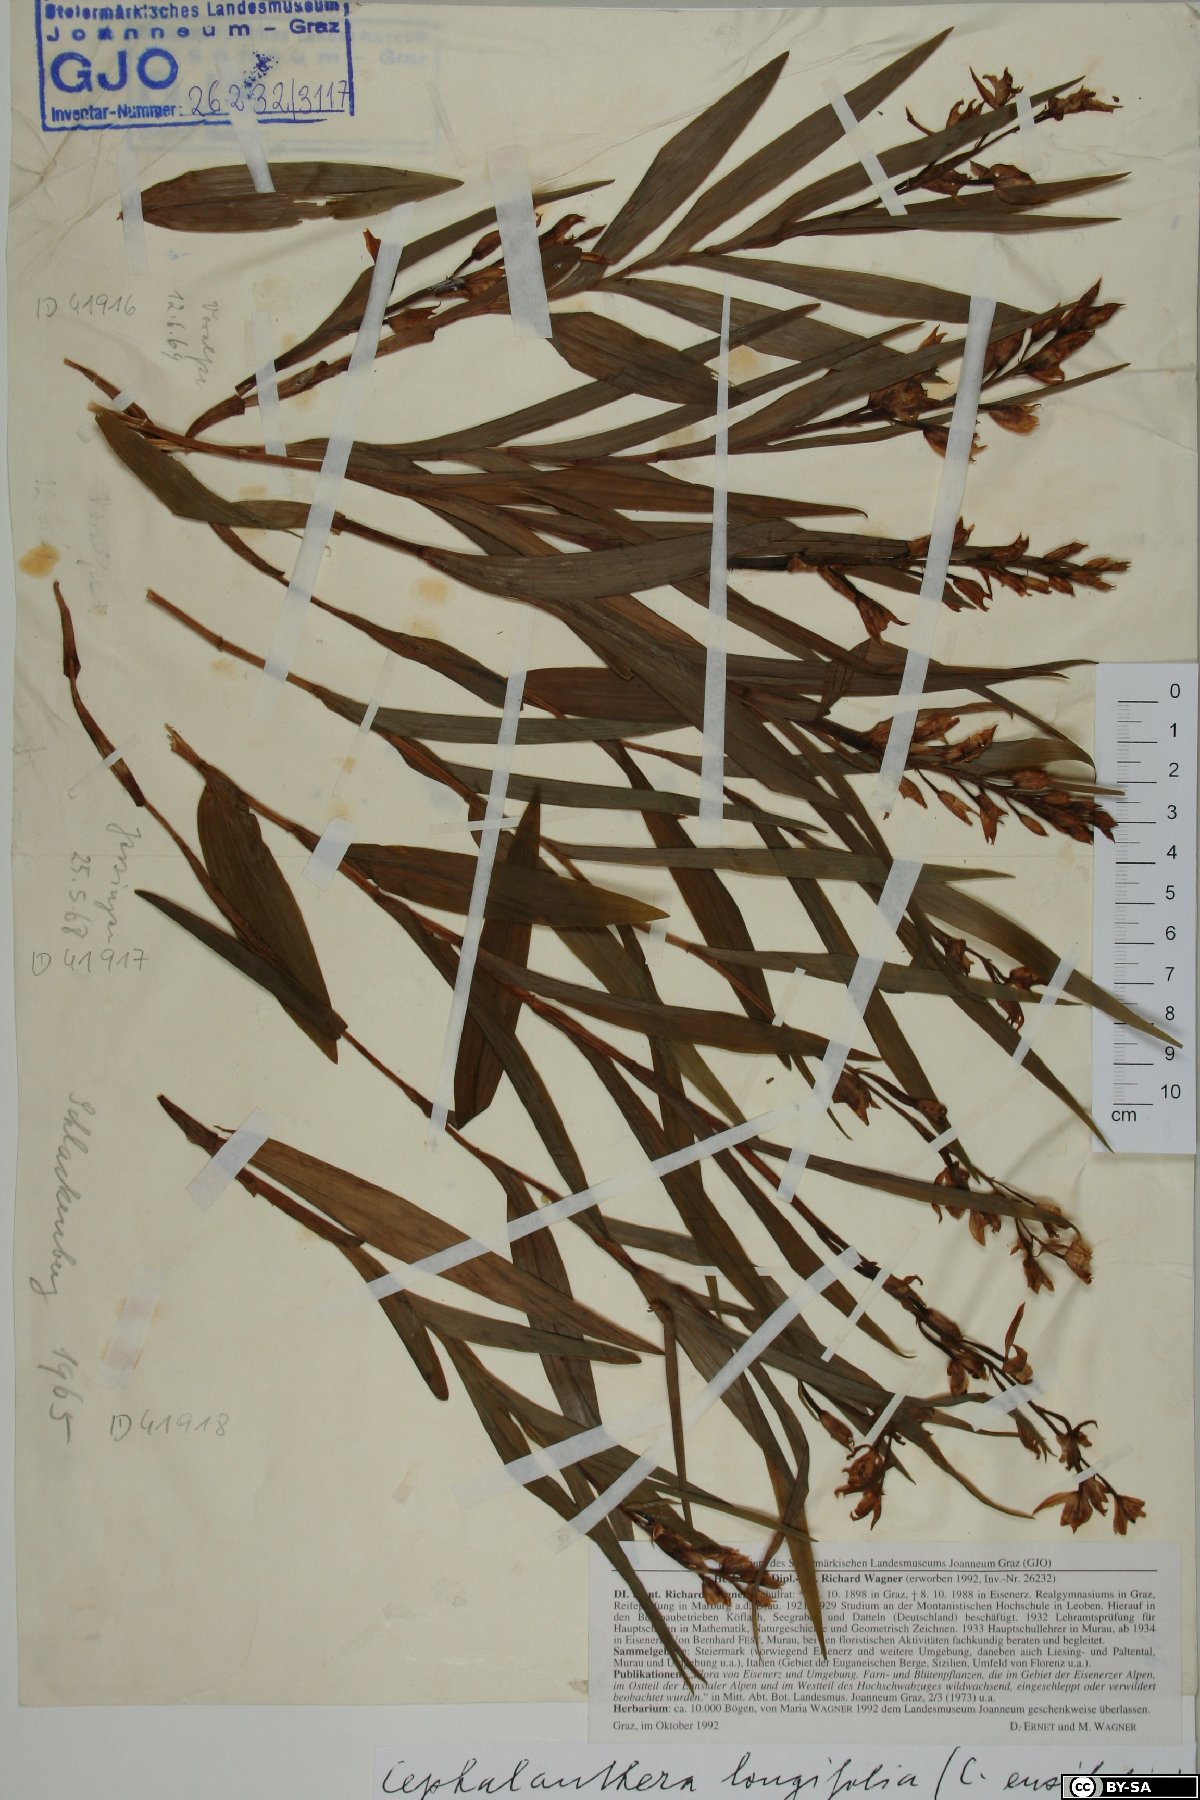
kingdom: Plantae
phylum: Tracheophyta
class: Liliopsida
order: Asparagales
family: Orchidaceae
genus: Cephalanthera
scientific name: Cephalanthera longifolia
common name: Narrow-leaved helleborine
